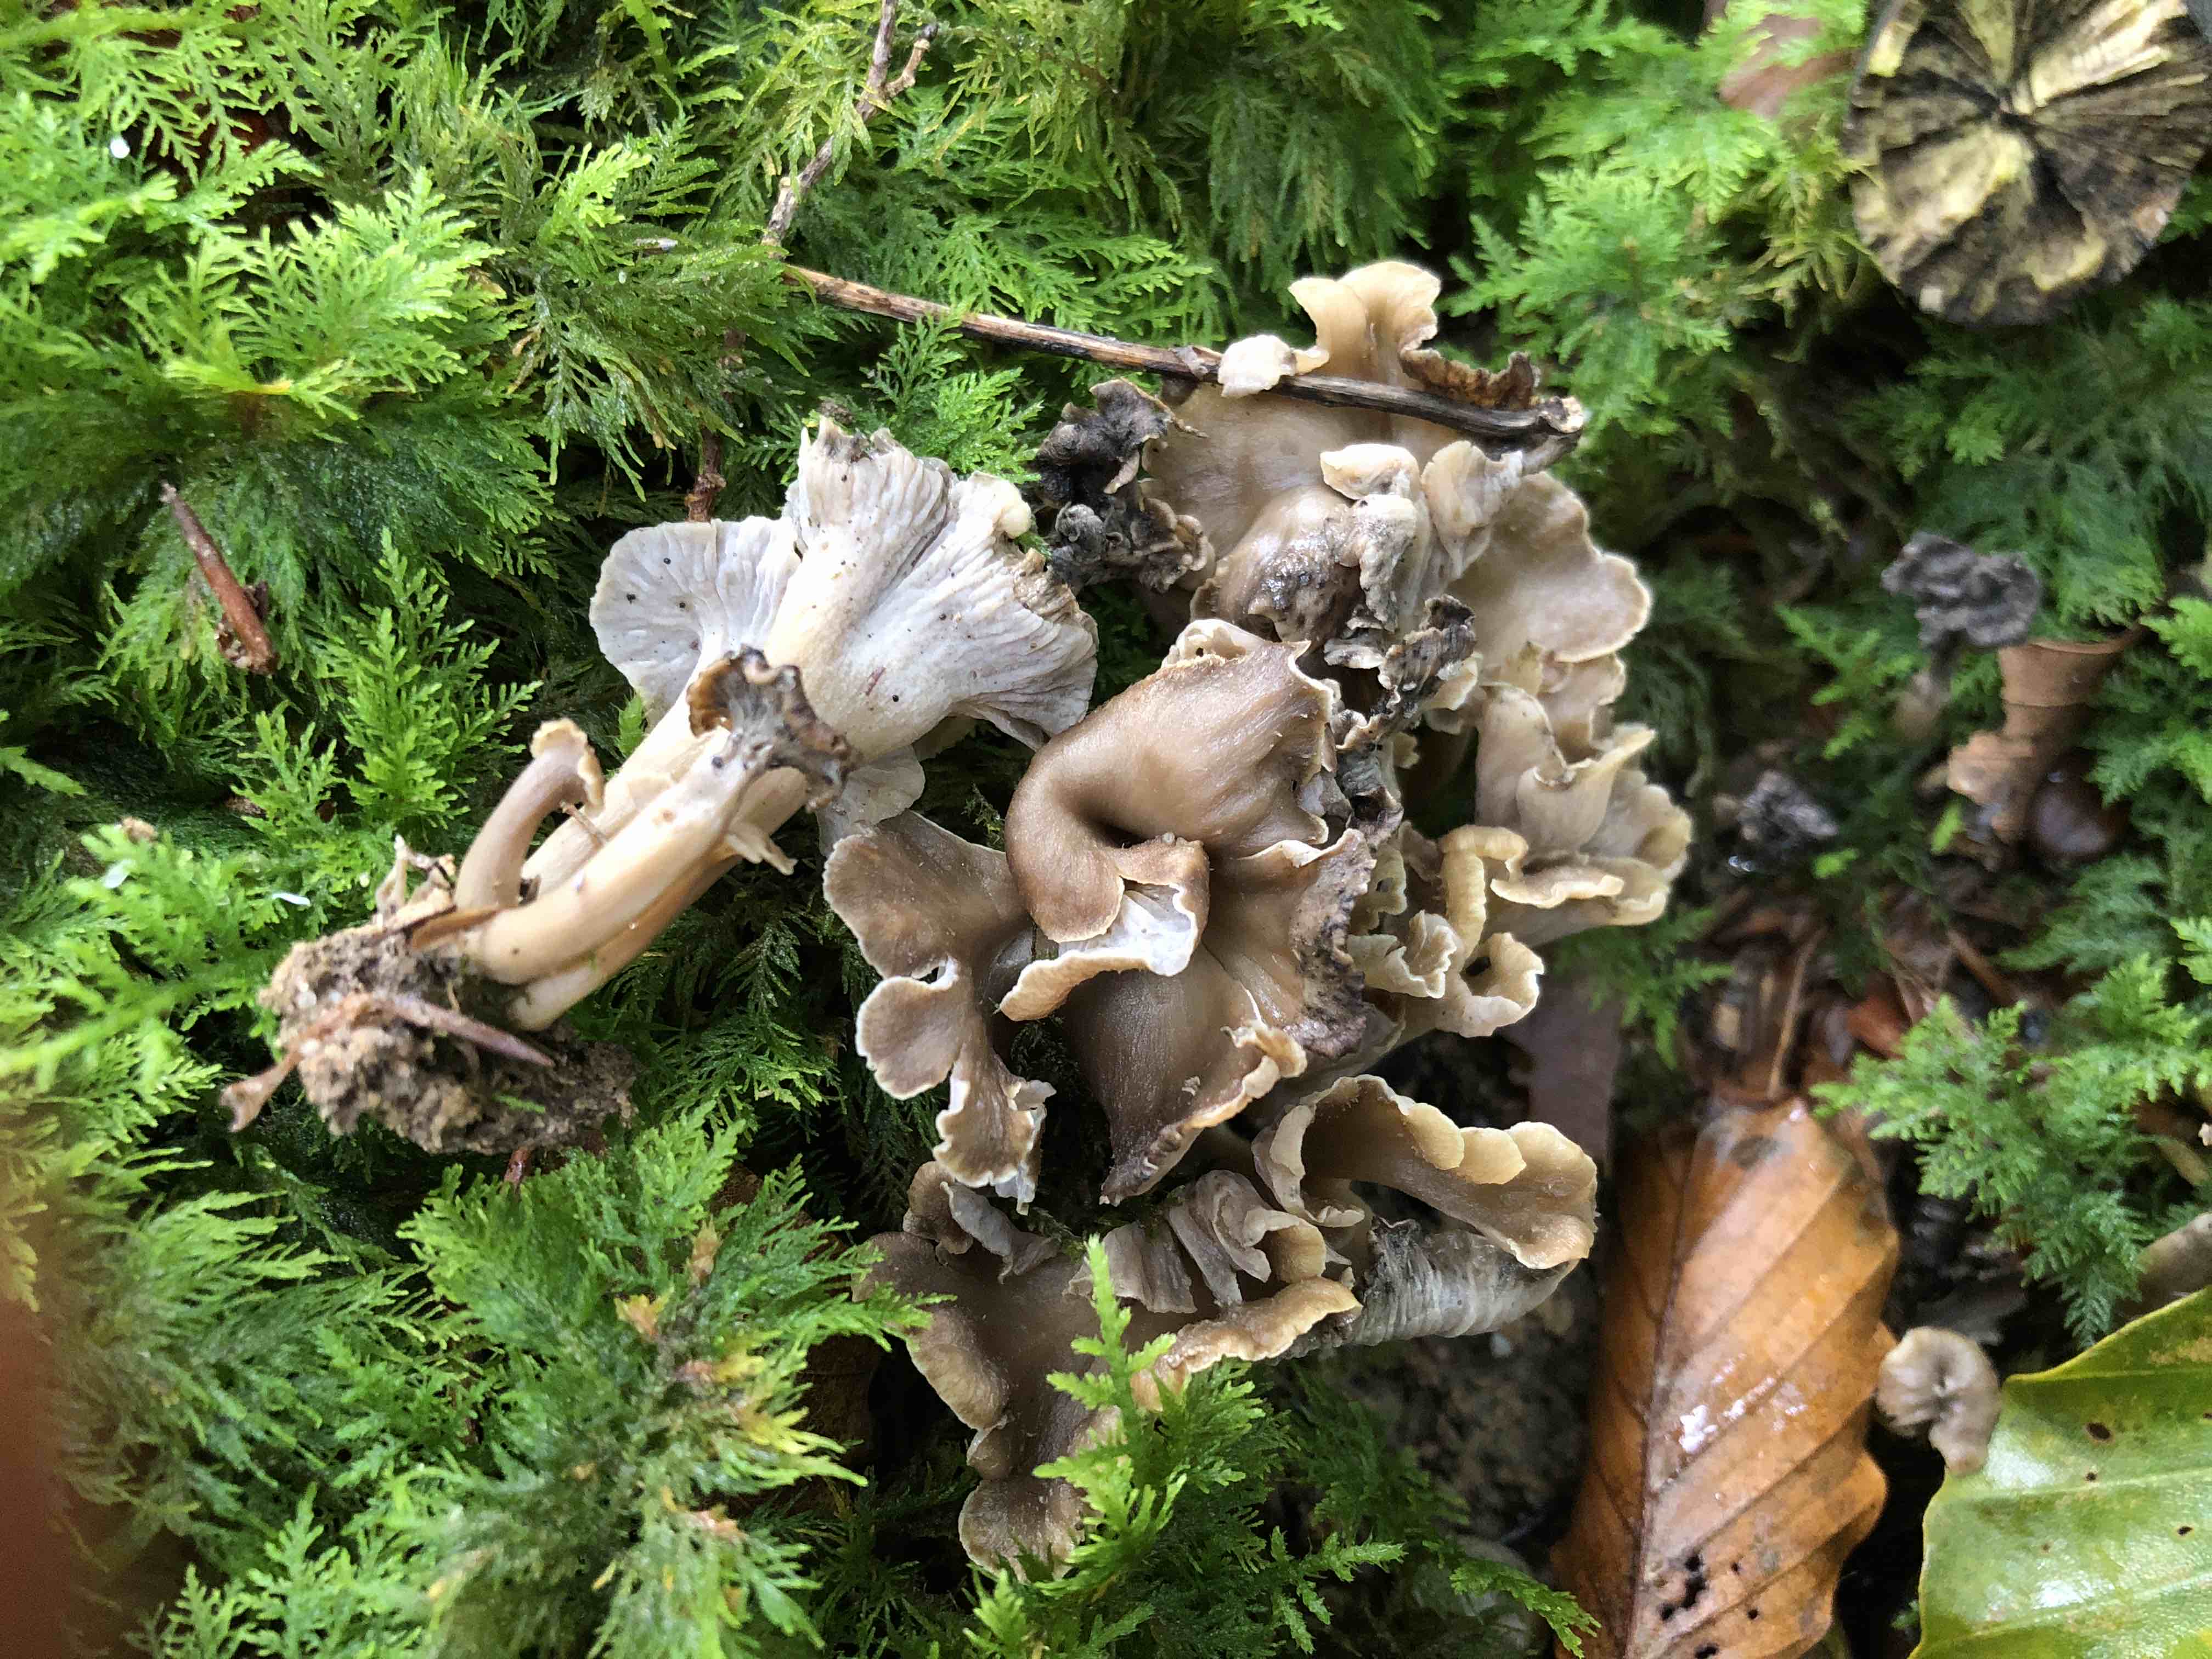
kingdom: Fungi
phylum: Basidiomycota
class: Agaricomycetes
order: Cantharellales
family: Hydnaceae
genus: Craterellus
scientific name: Craterellus undulatus
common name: liden kantarel
